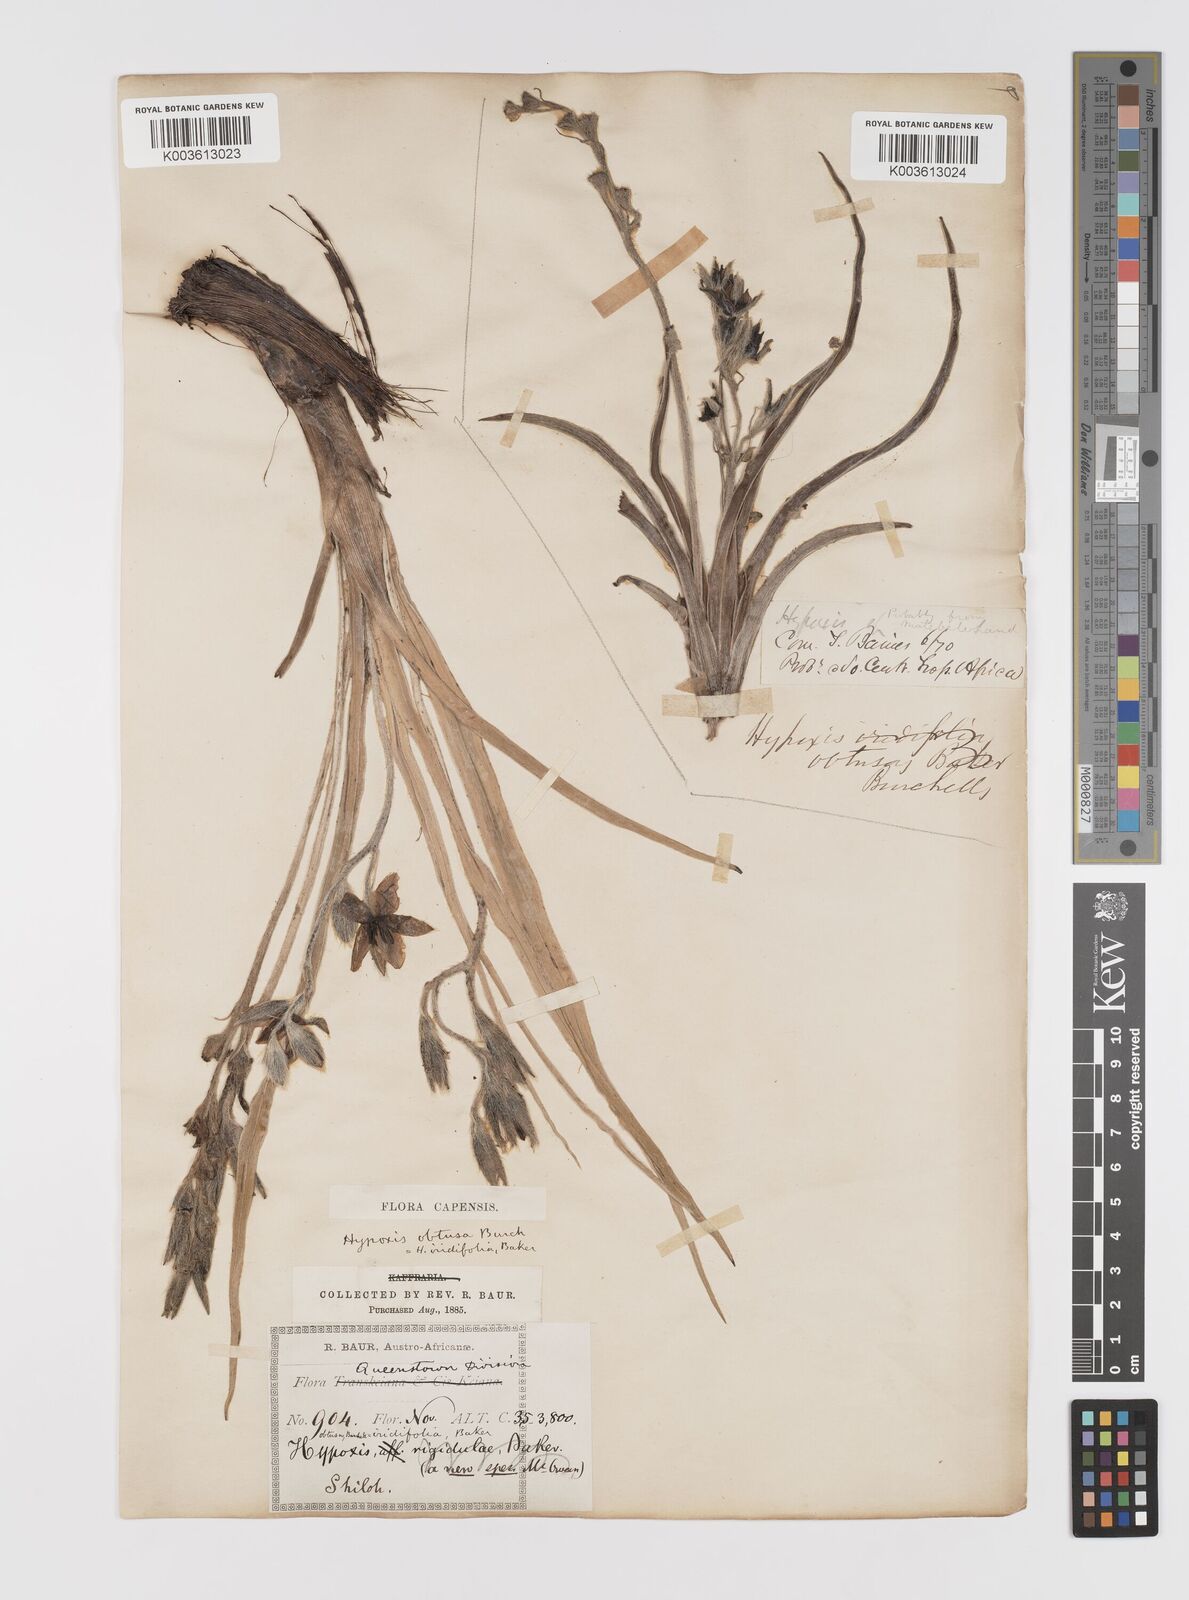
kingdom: Plantae
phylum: Tracheophyta
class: Liliopsida
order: Asparagales
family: Hypoxidaceae
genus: Hypoxis
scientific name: Hypoxis obtusa
